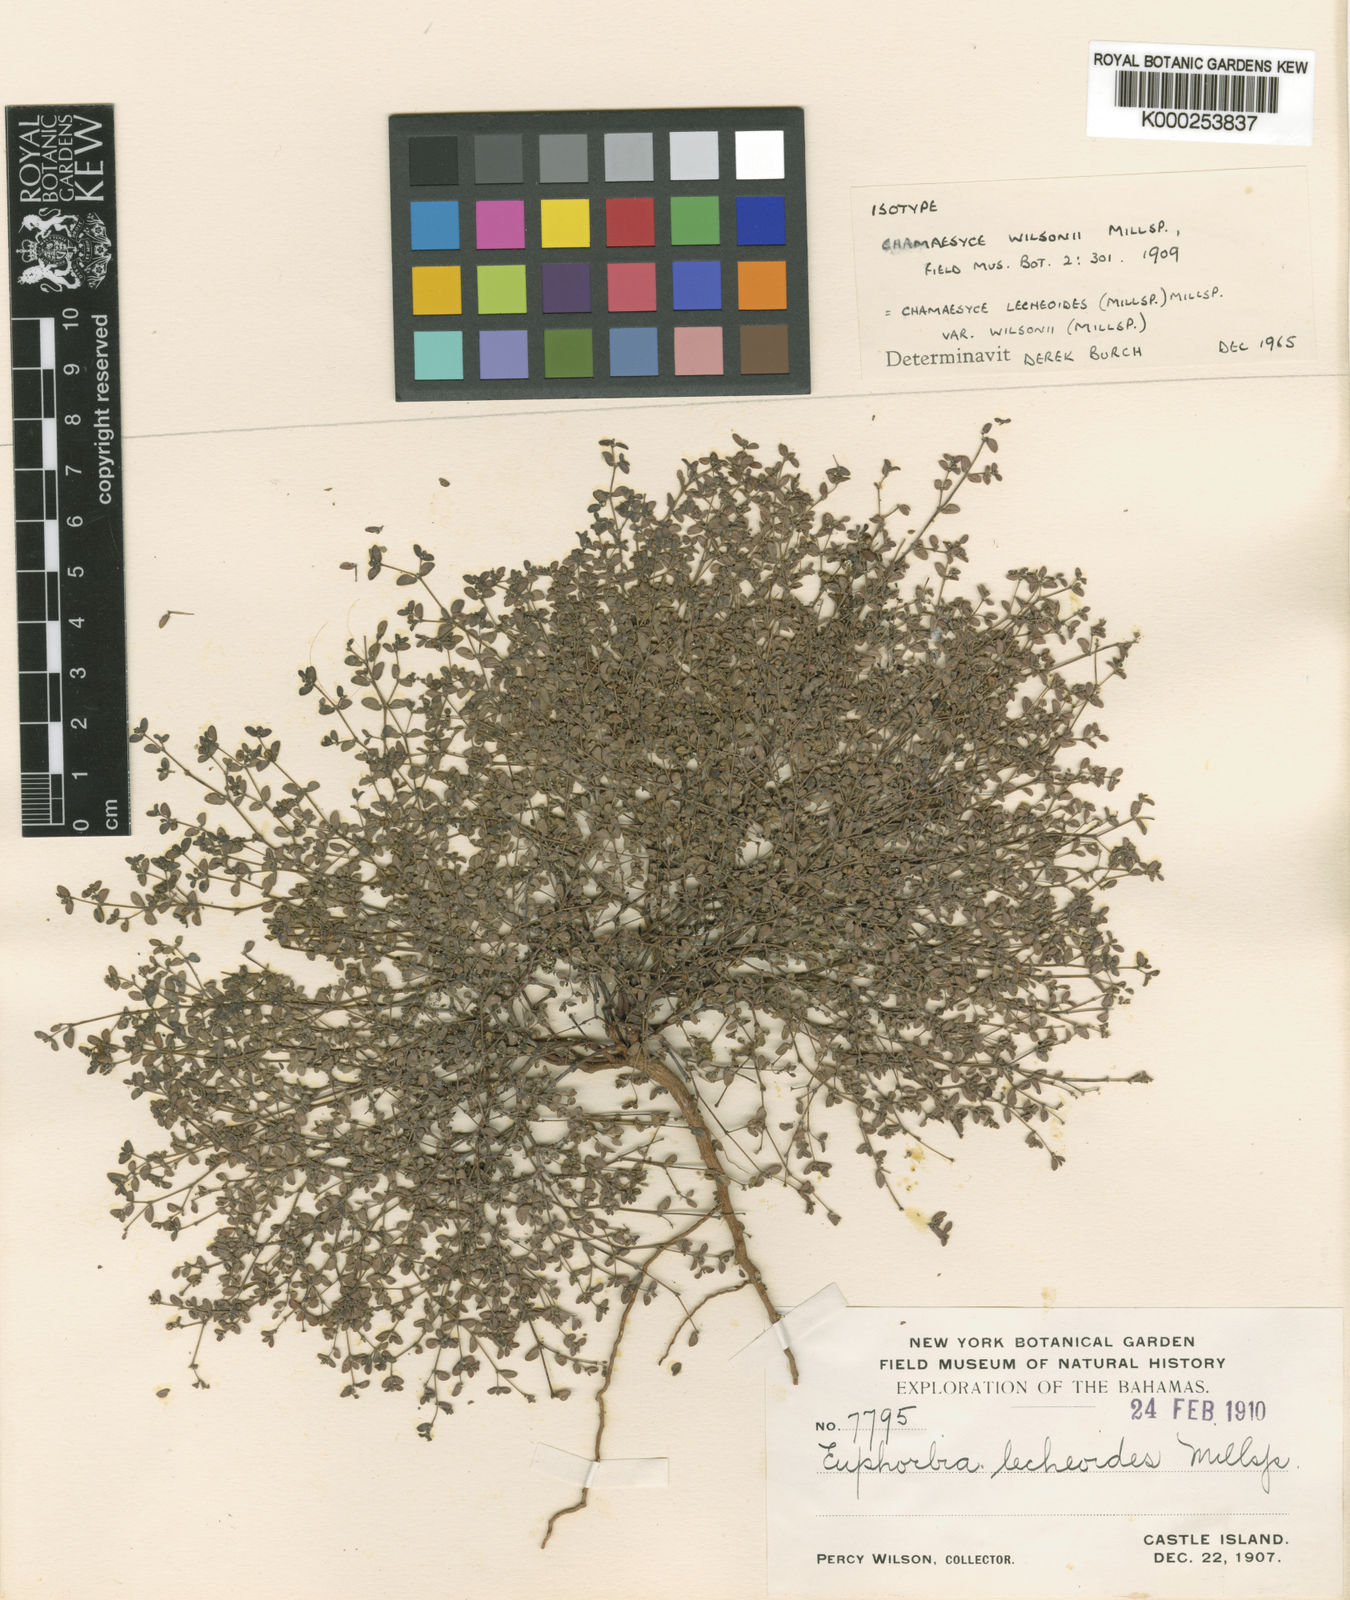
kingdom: Plantae
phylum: Tracheophyta
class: Magnoliopsida
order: Malpighiales
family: Euphorbiaceae
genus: Euphorbia
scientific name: Euphorbia lecheoides
